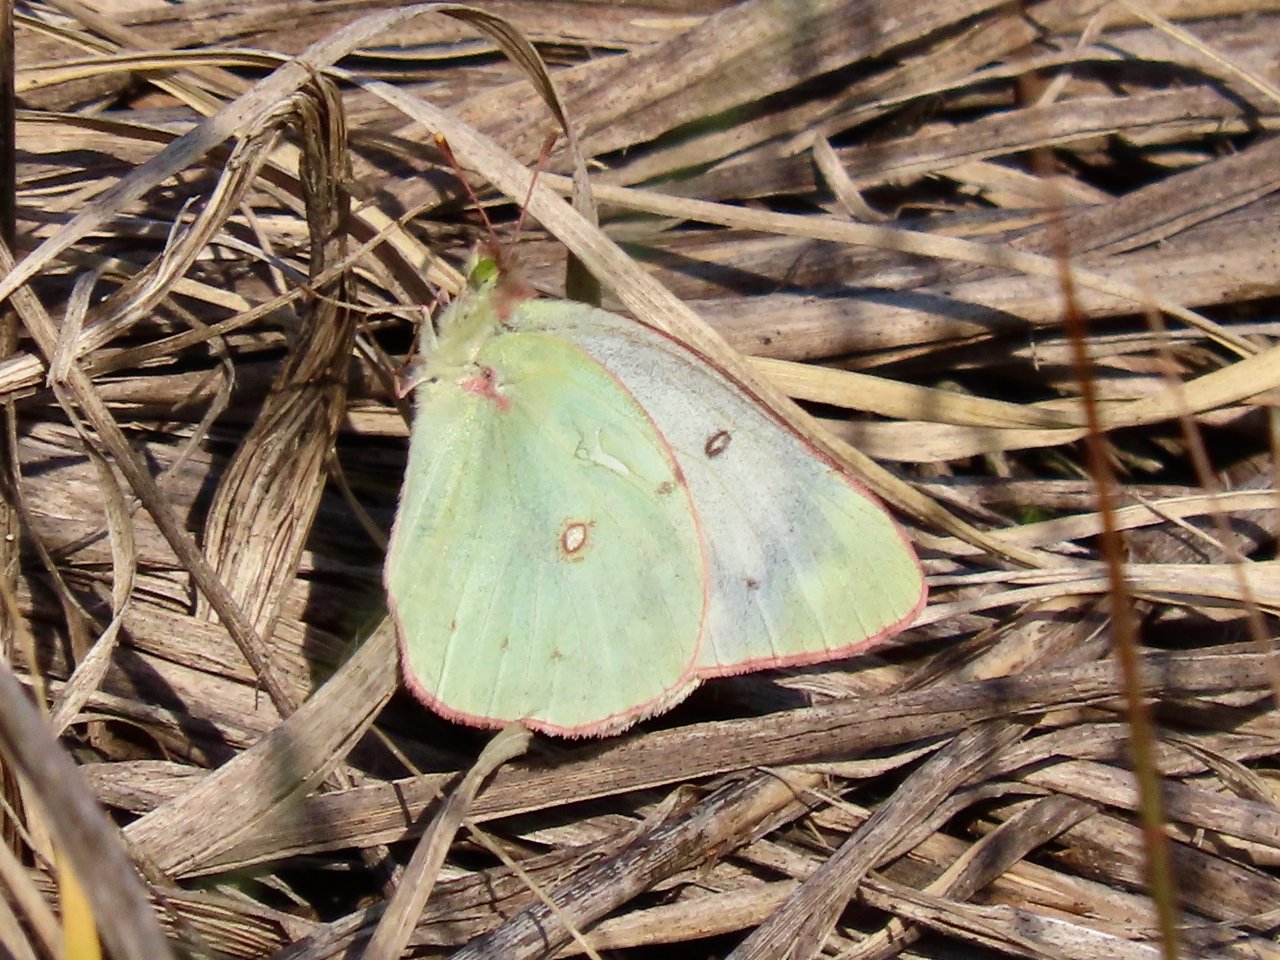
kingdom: Animalia
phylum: Arthropoda
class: Insecta
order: Lepidoptera
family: Pieridae
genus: Colias
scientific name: Colias philodice
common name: Clouded Sulphur
